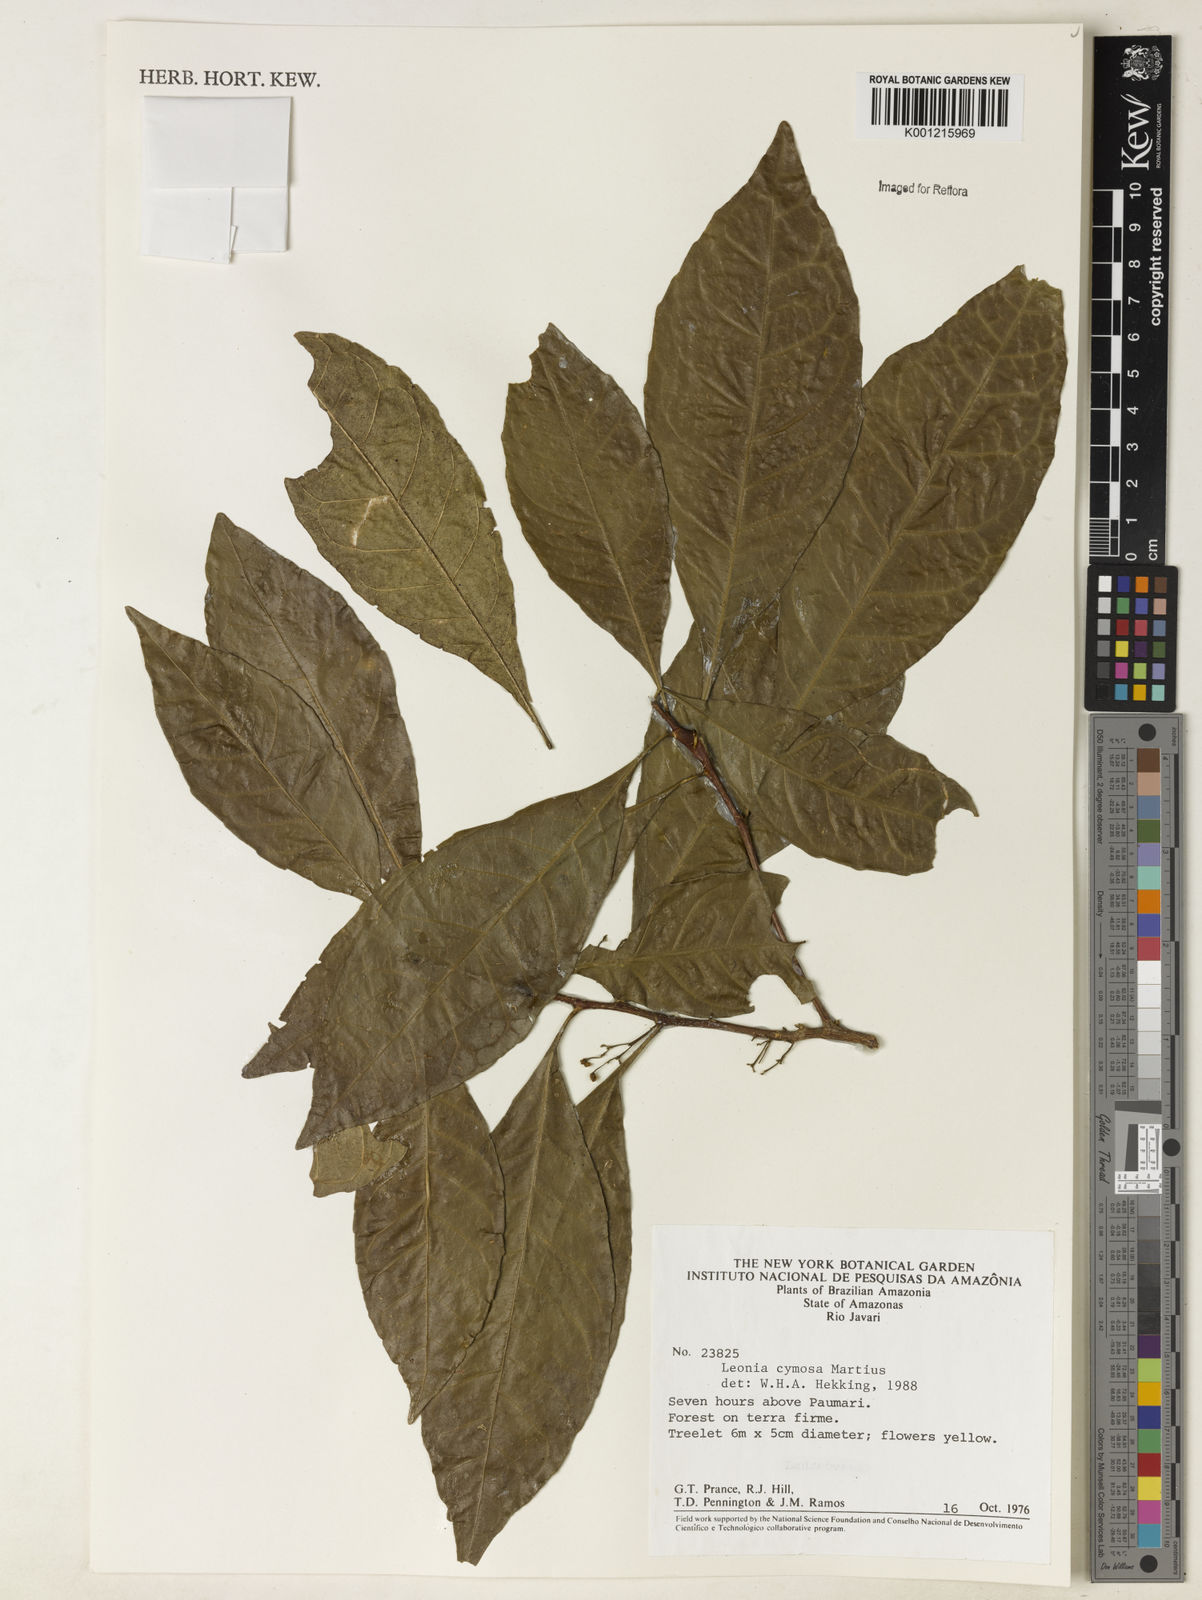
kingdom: Plantae
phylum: Tracheophyta
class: Magnoliopsida
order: Malpighiales
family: Violaceae
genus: Leonia
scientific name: Leonia cymosa
